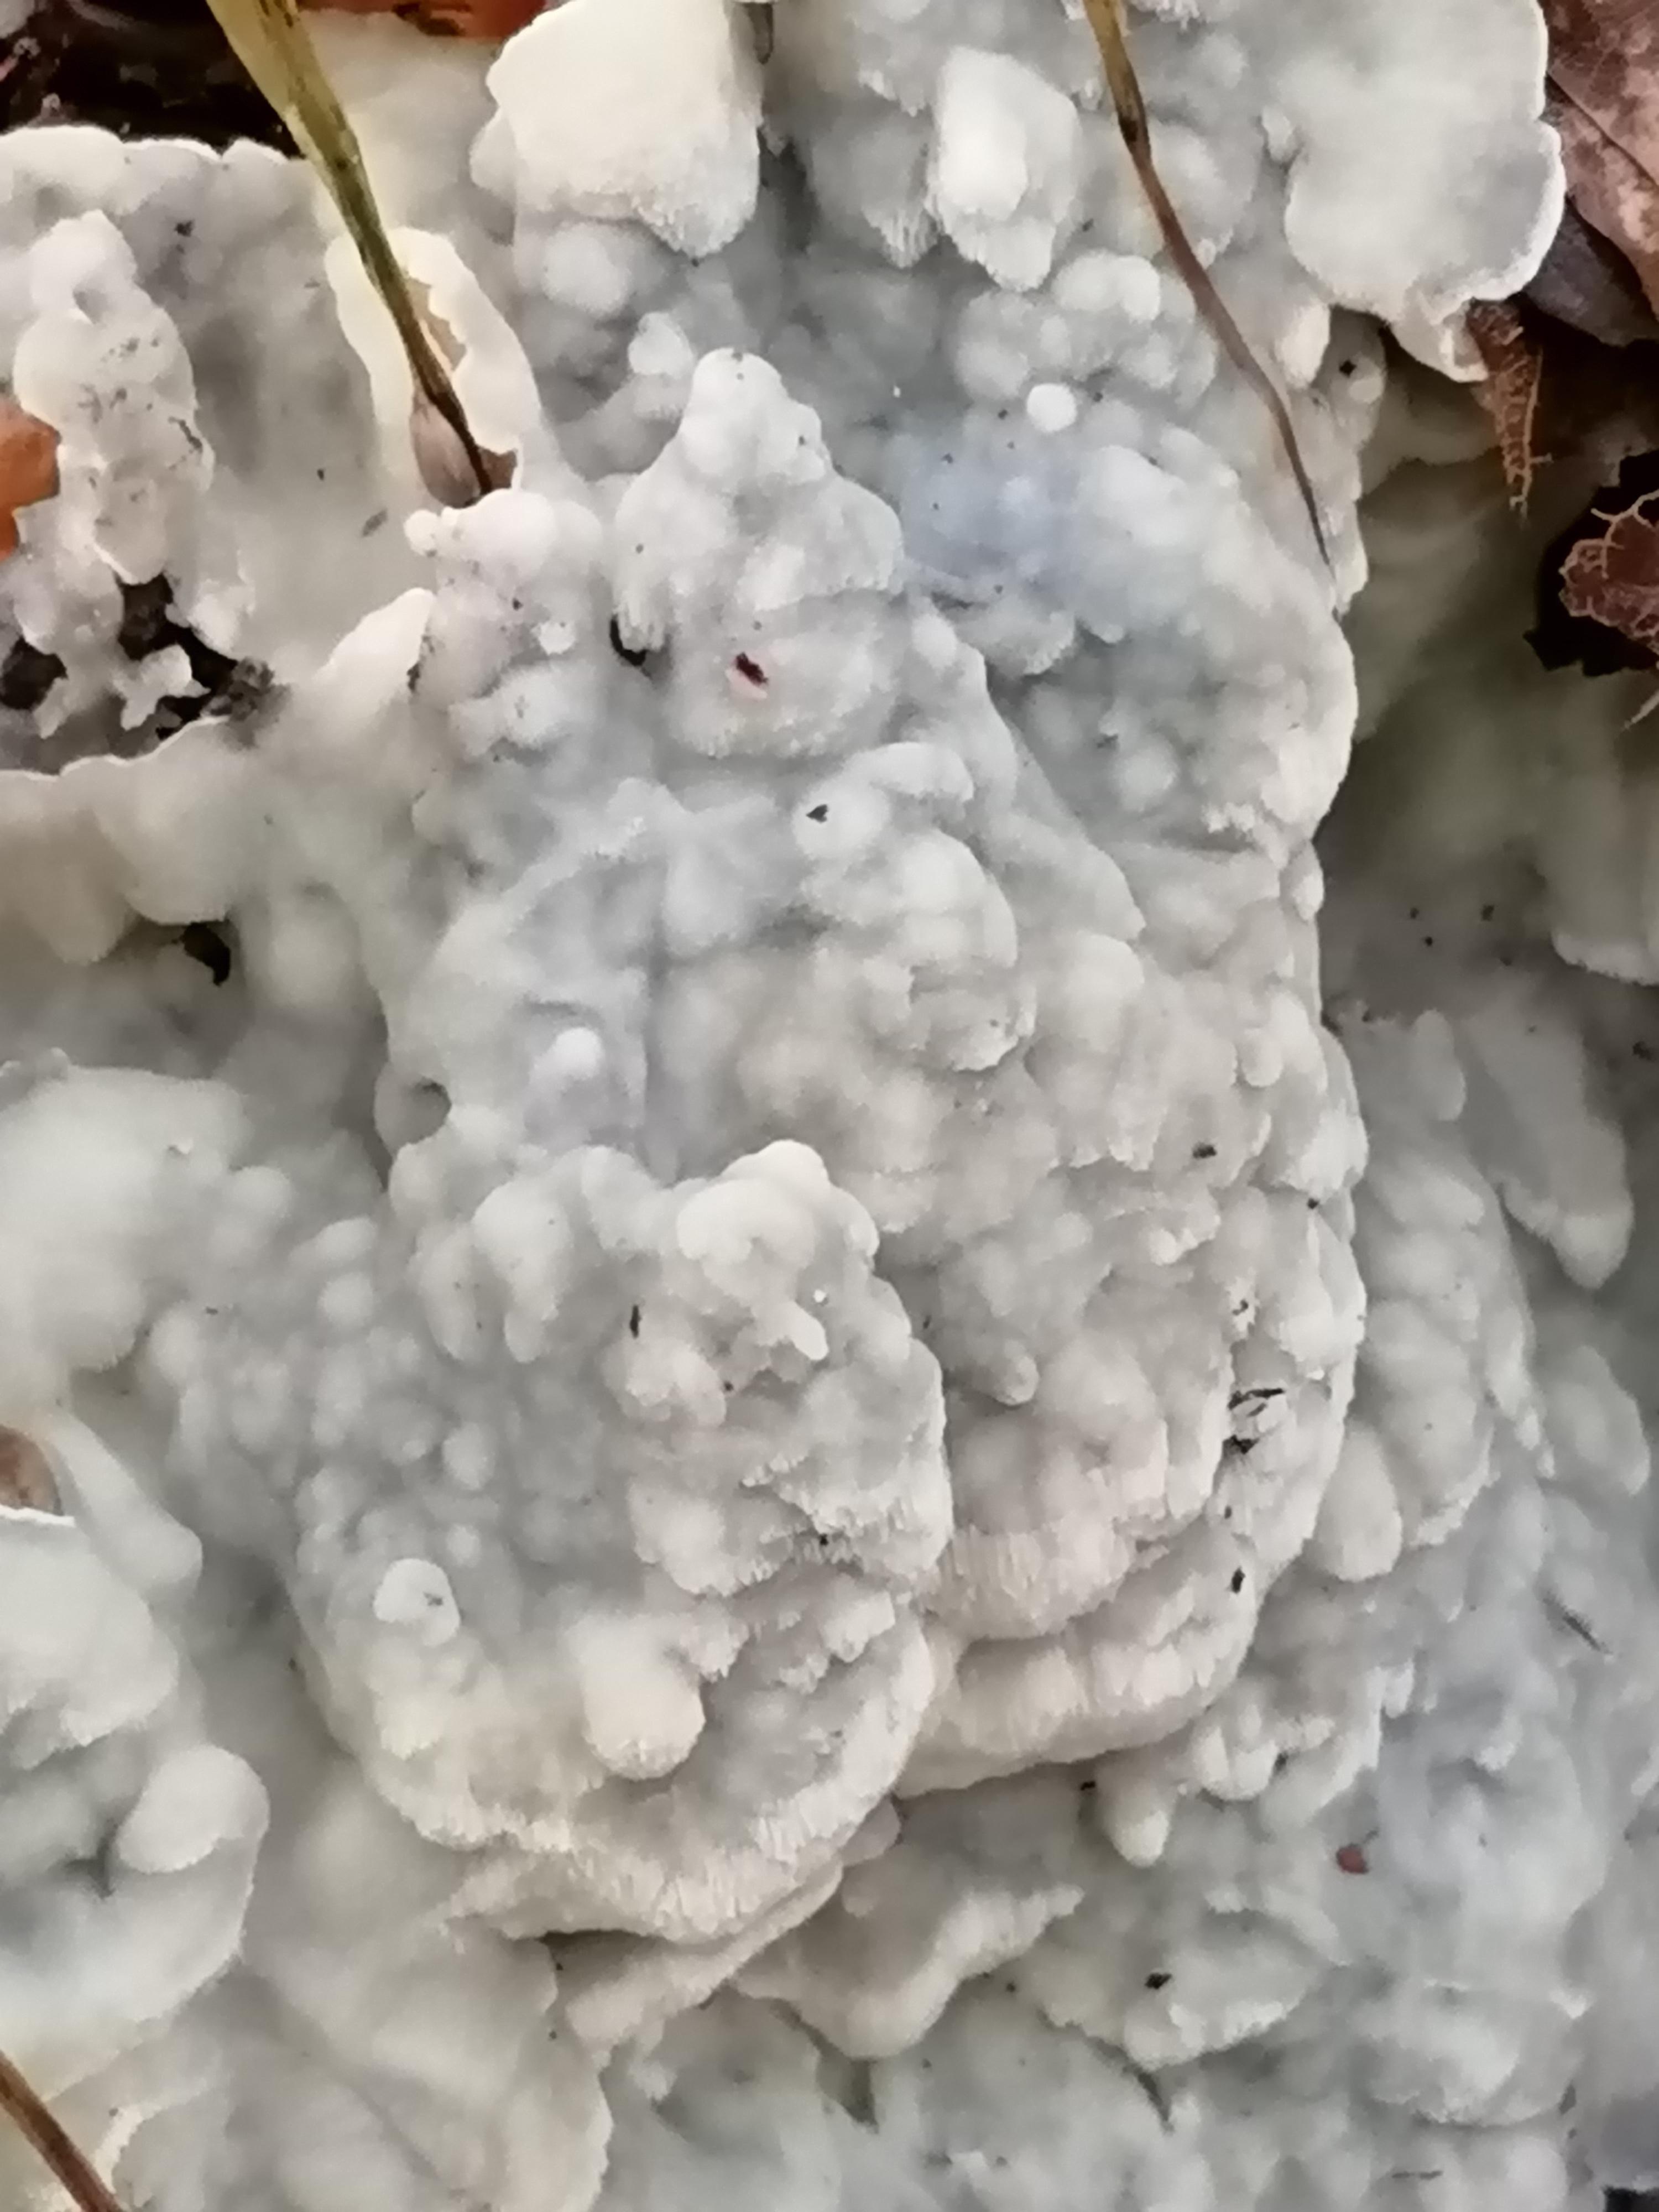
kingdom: Fungi
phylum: Basidiomycota
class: Agaricomycetes
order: Polyporales
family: Meruliaceae
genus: Physisporinus
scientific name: Physisporinus
